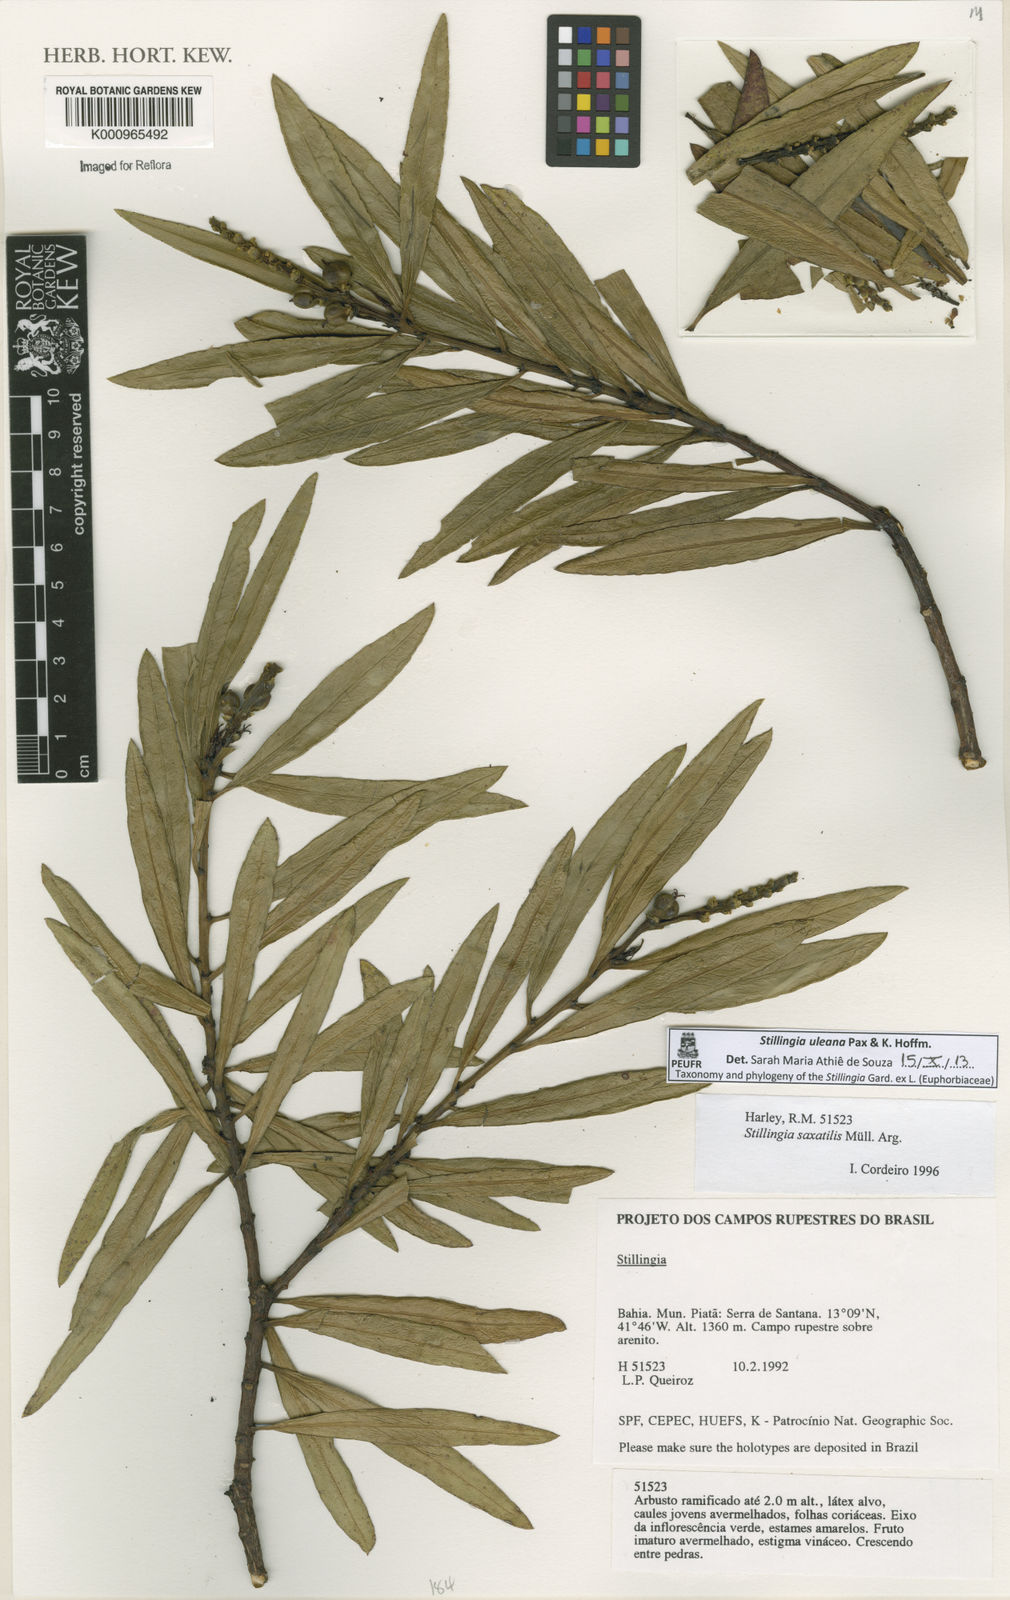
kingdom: Plantae
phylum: Tracheophyta
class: Magnoliopsida
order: Malpighiales
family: Euphorbiaceae
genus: Stillingia
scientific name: Stillingia uleana
